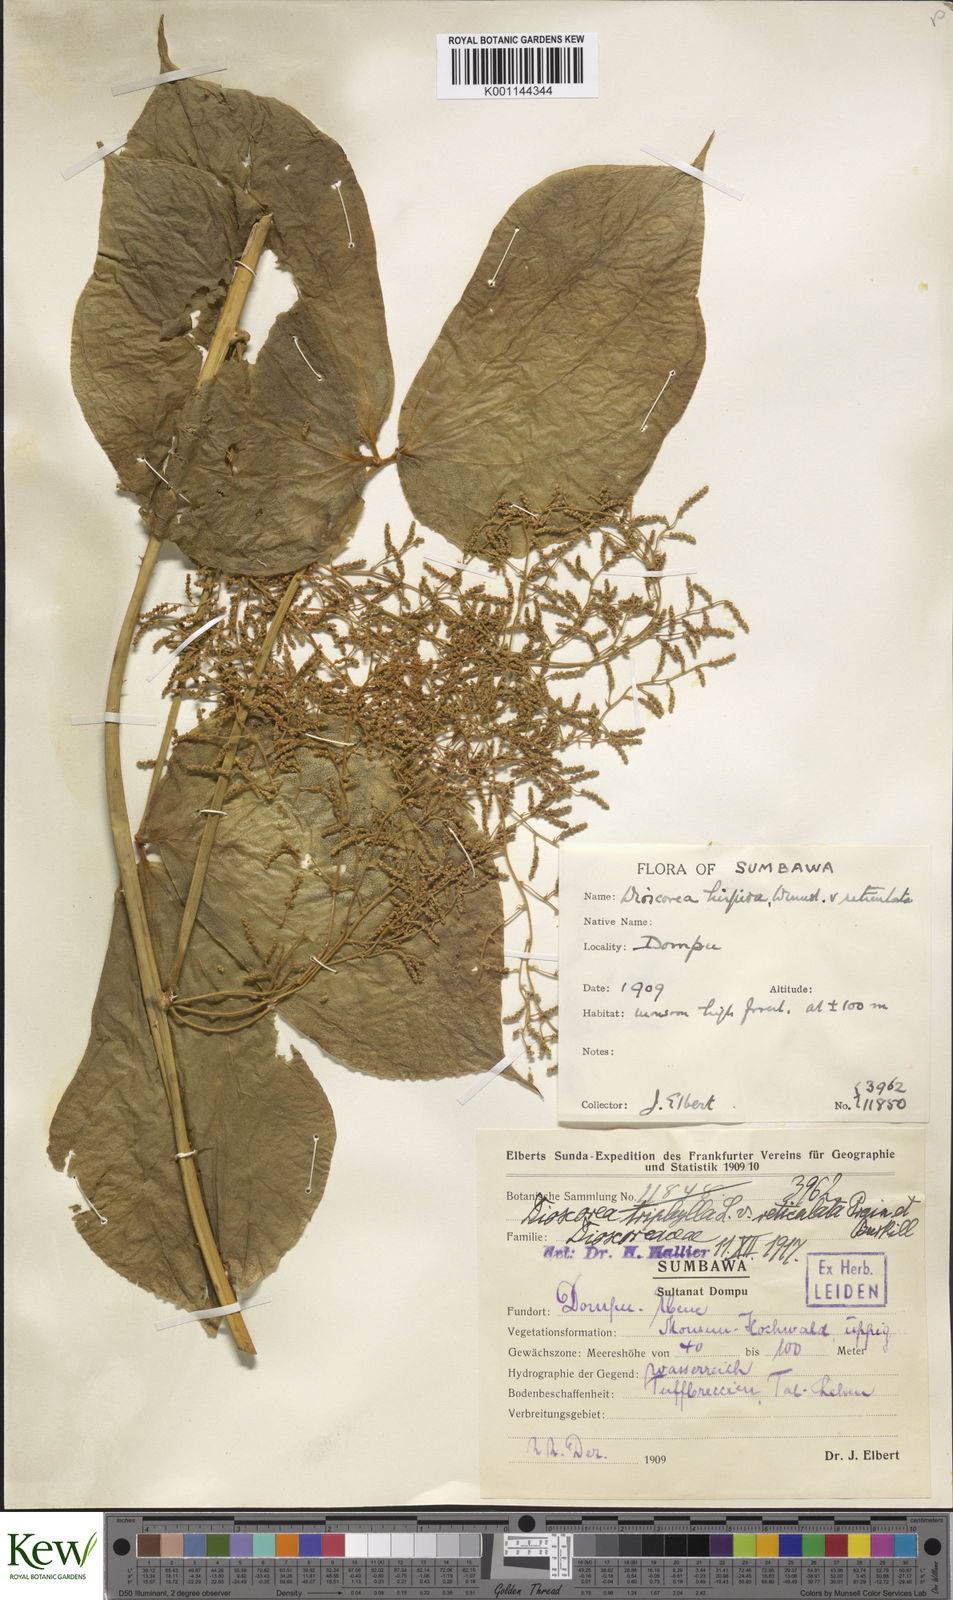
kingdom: Plantae
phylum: Tracheophyta
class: Liliopsida
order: Dioscoreales
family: Dioscoreaceae
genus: Dioscorea
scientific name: Dioscorea hispida
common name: Asiatic bitter yam
